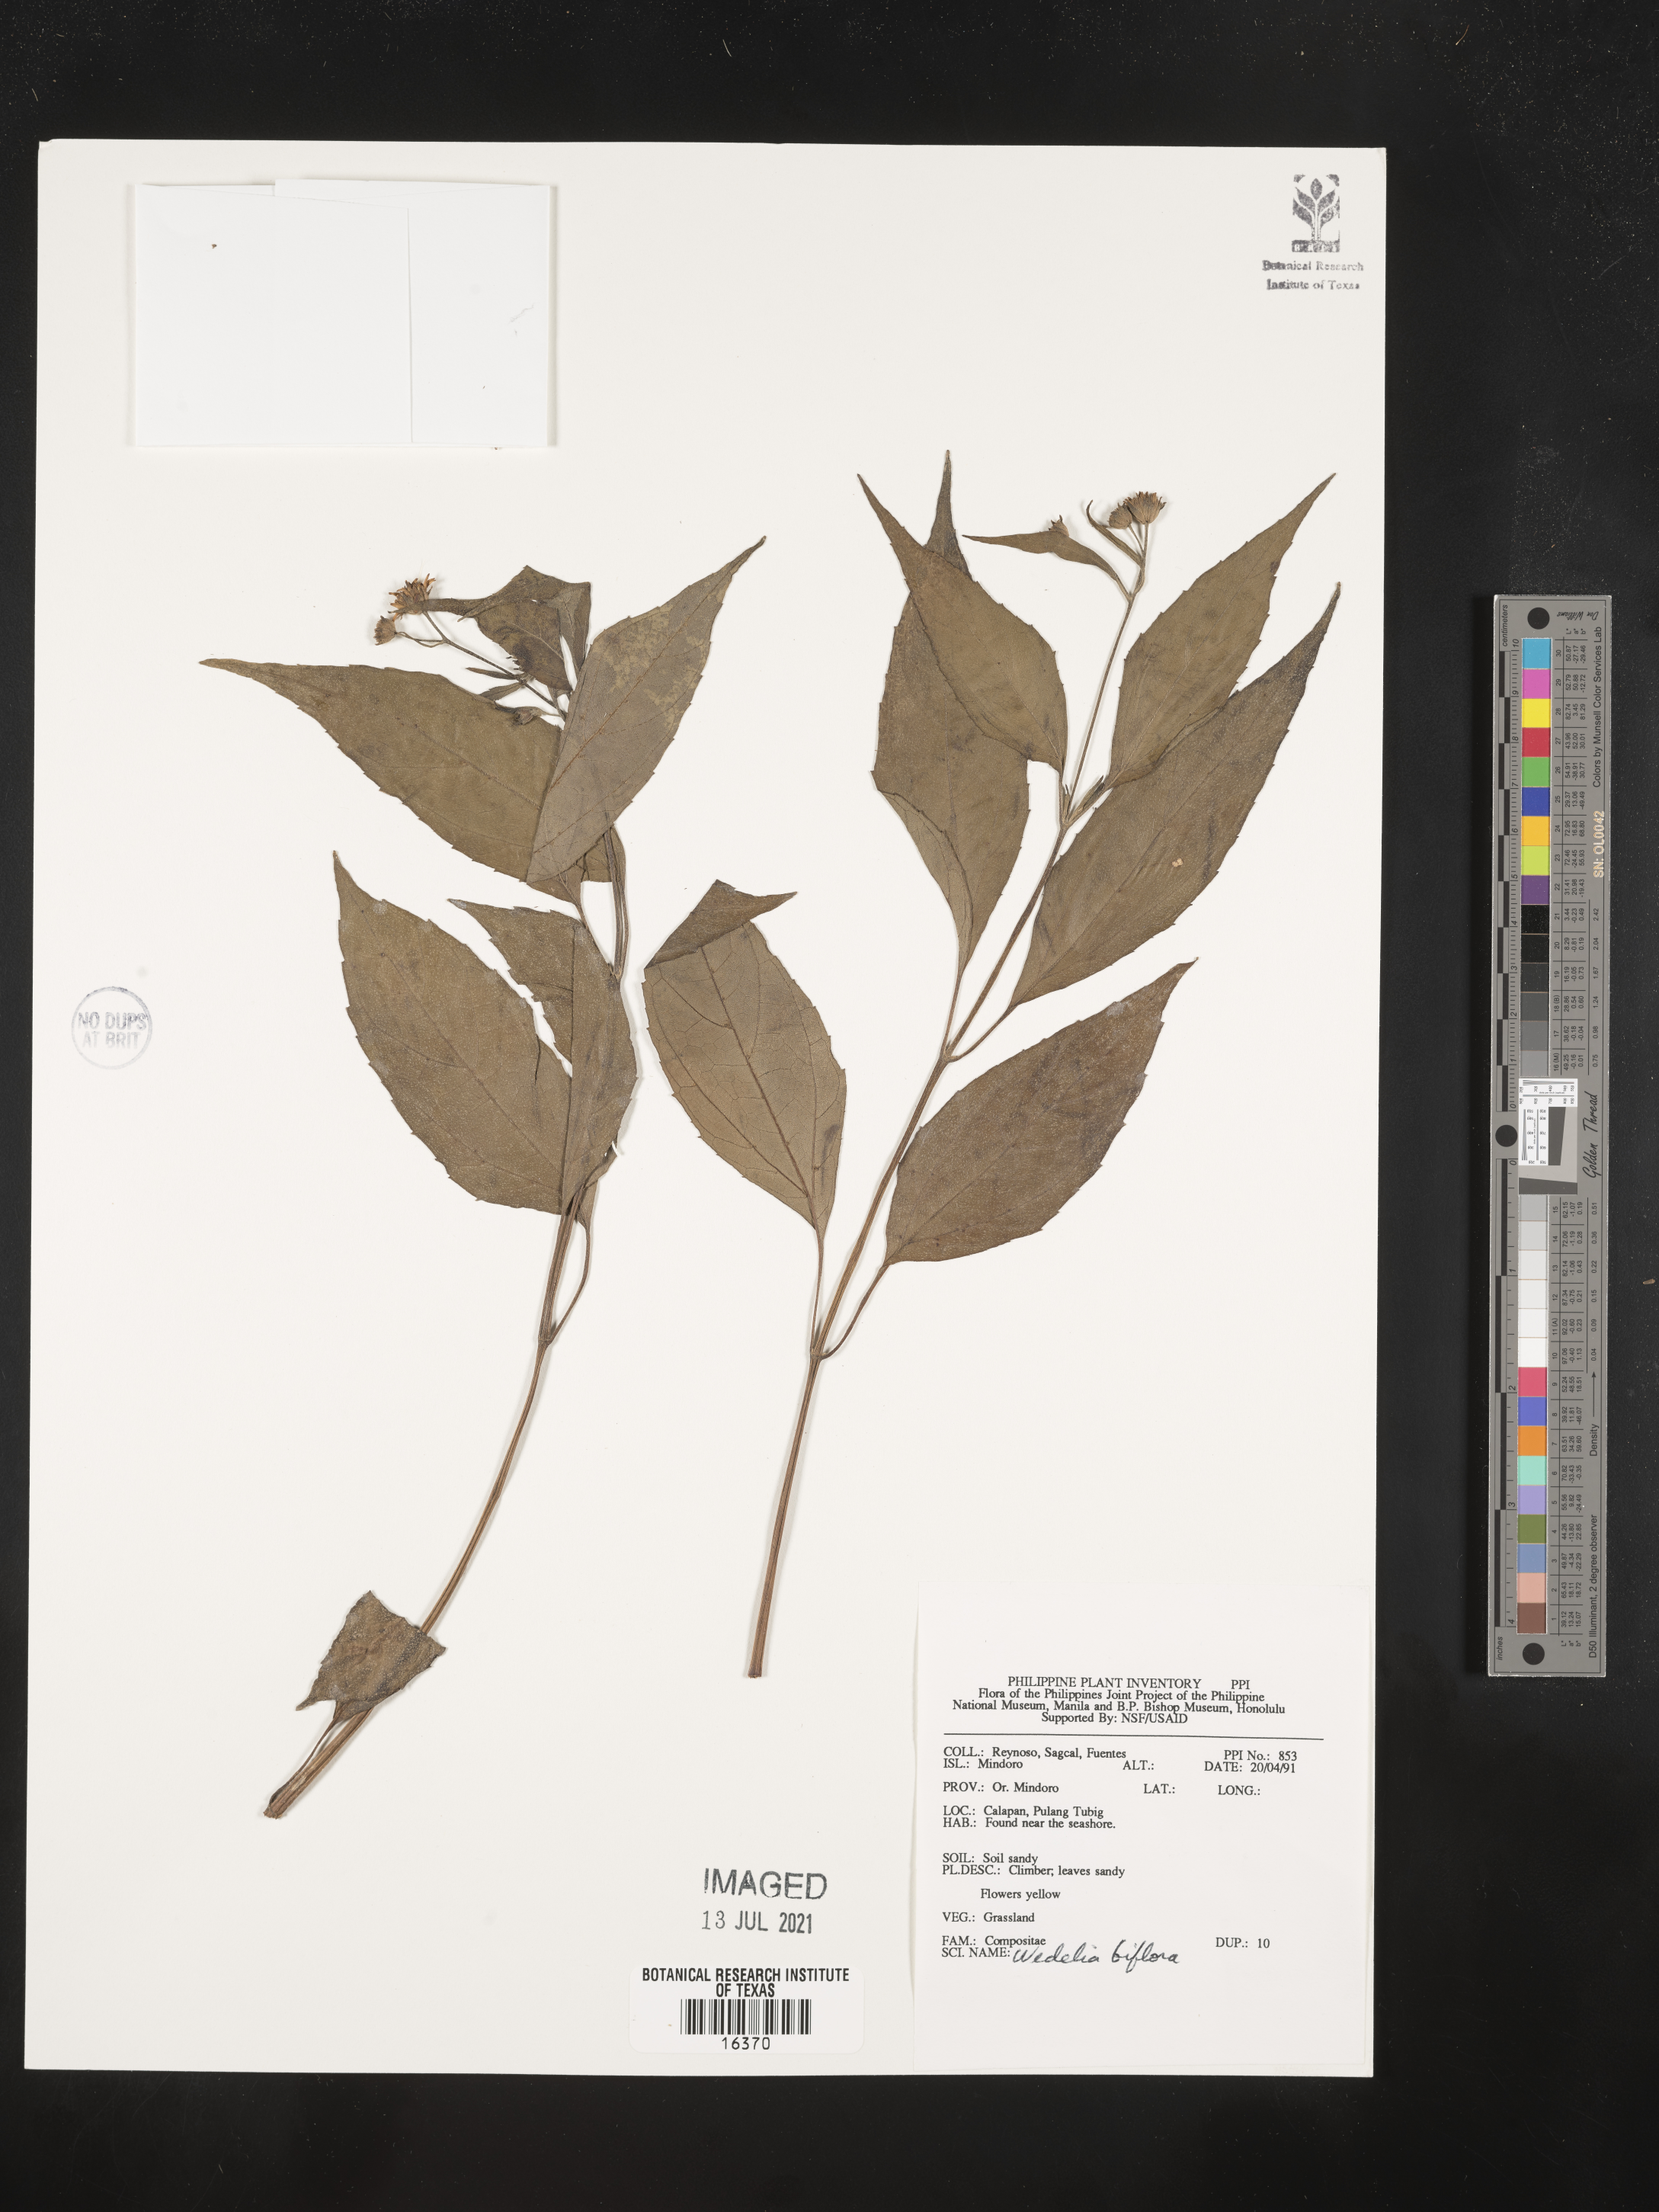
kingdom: Plantae
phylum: Tracheophyta
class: Magnoliopsida
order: Asterales
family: Asteraceae
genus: Wollastonia
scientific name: Wollastonia biflora
